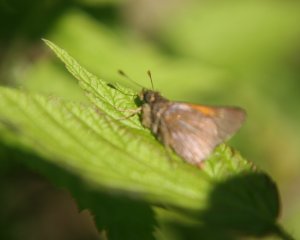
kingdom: Animalia
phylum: Arthropoda
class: Insecta
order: Lepidoptera
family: Hesperiidae
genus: Polites
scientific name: Polites themistocles
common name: Tawny-edged Skipper
